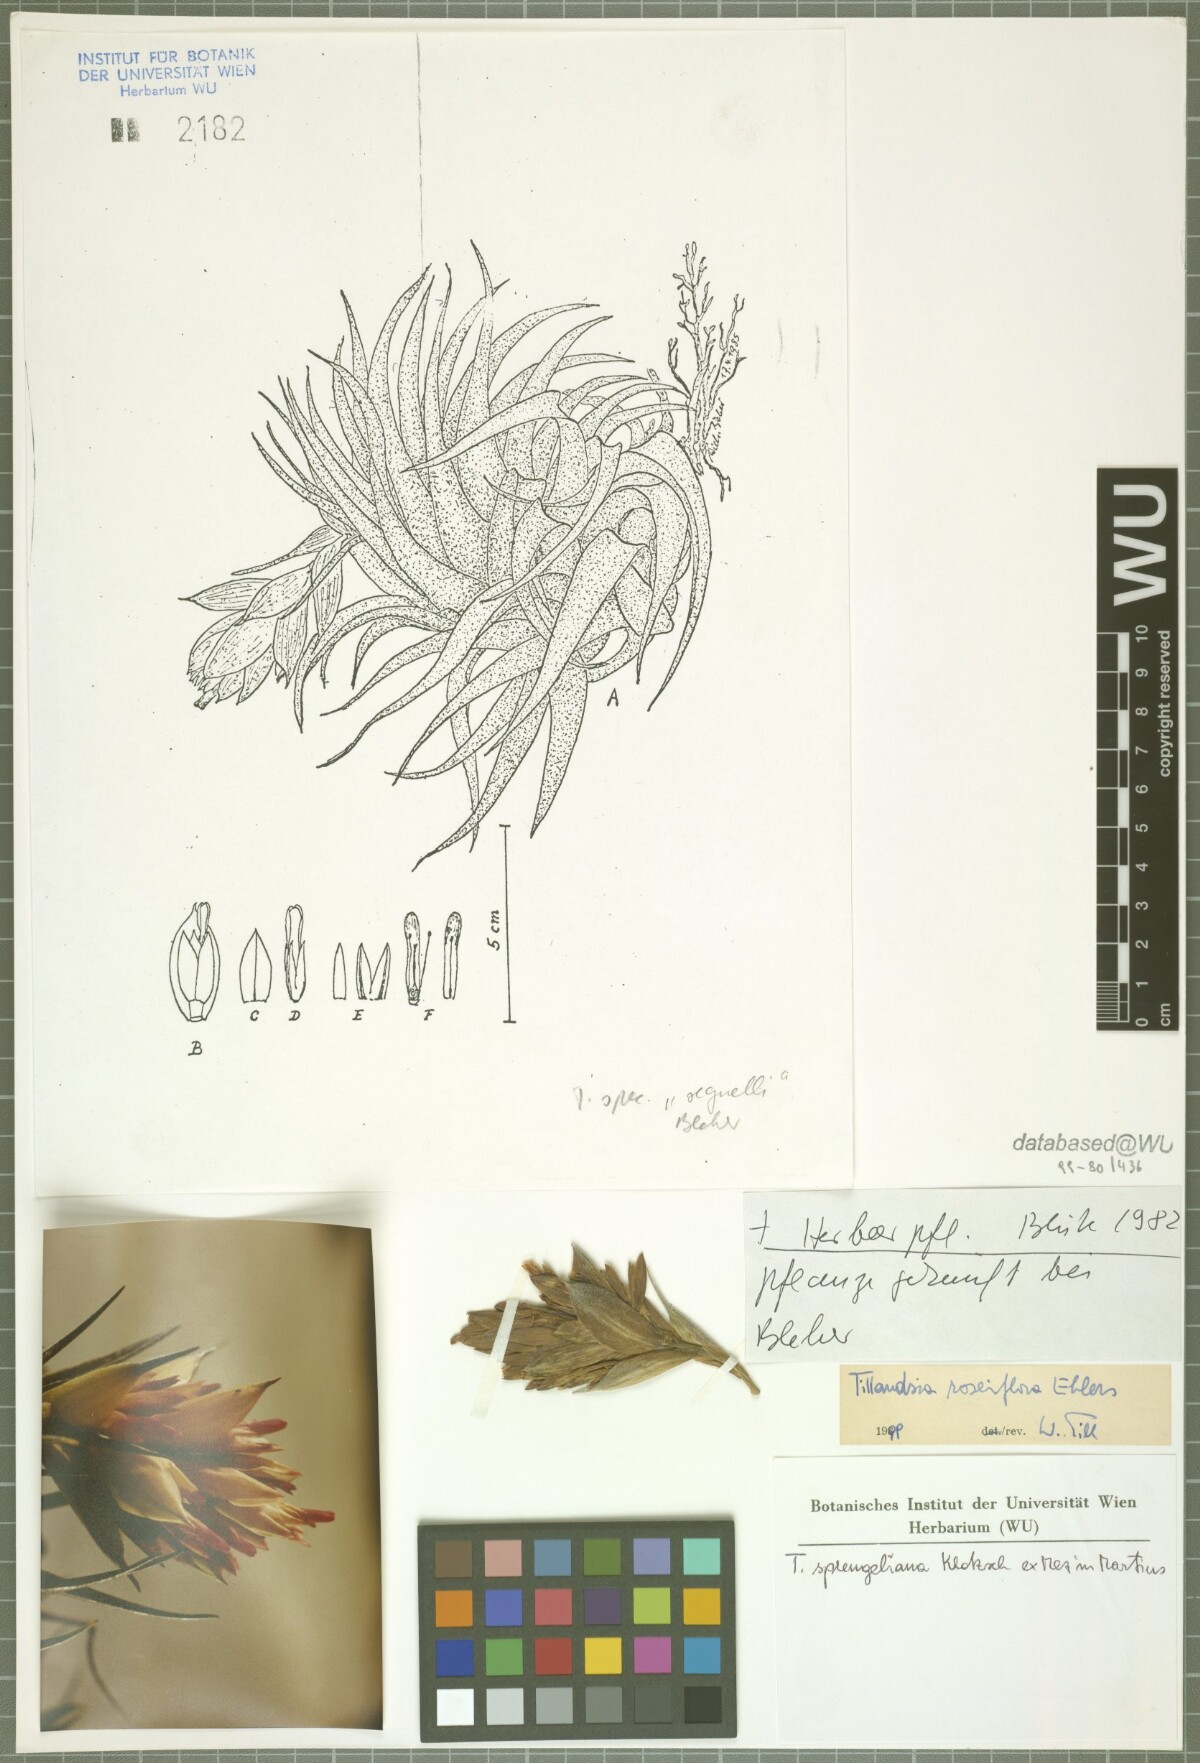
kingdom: Plantae
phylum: Tracheophyta
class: Liliopsida
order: Poales
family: Bromeliaceae
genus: Tillandsia
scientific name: Tillandsia roseiflora
